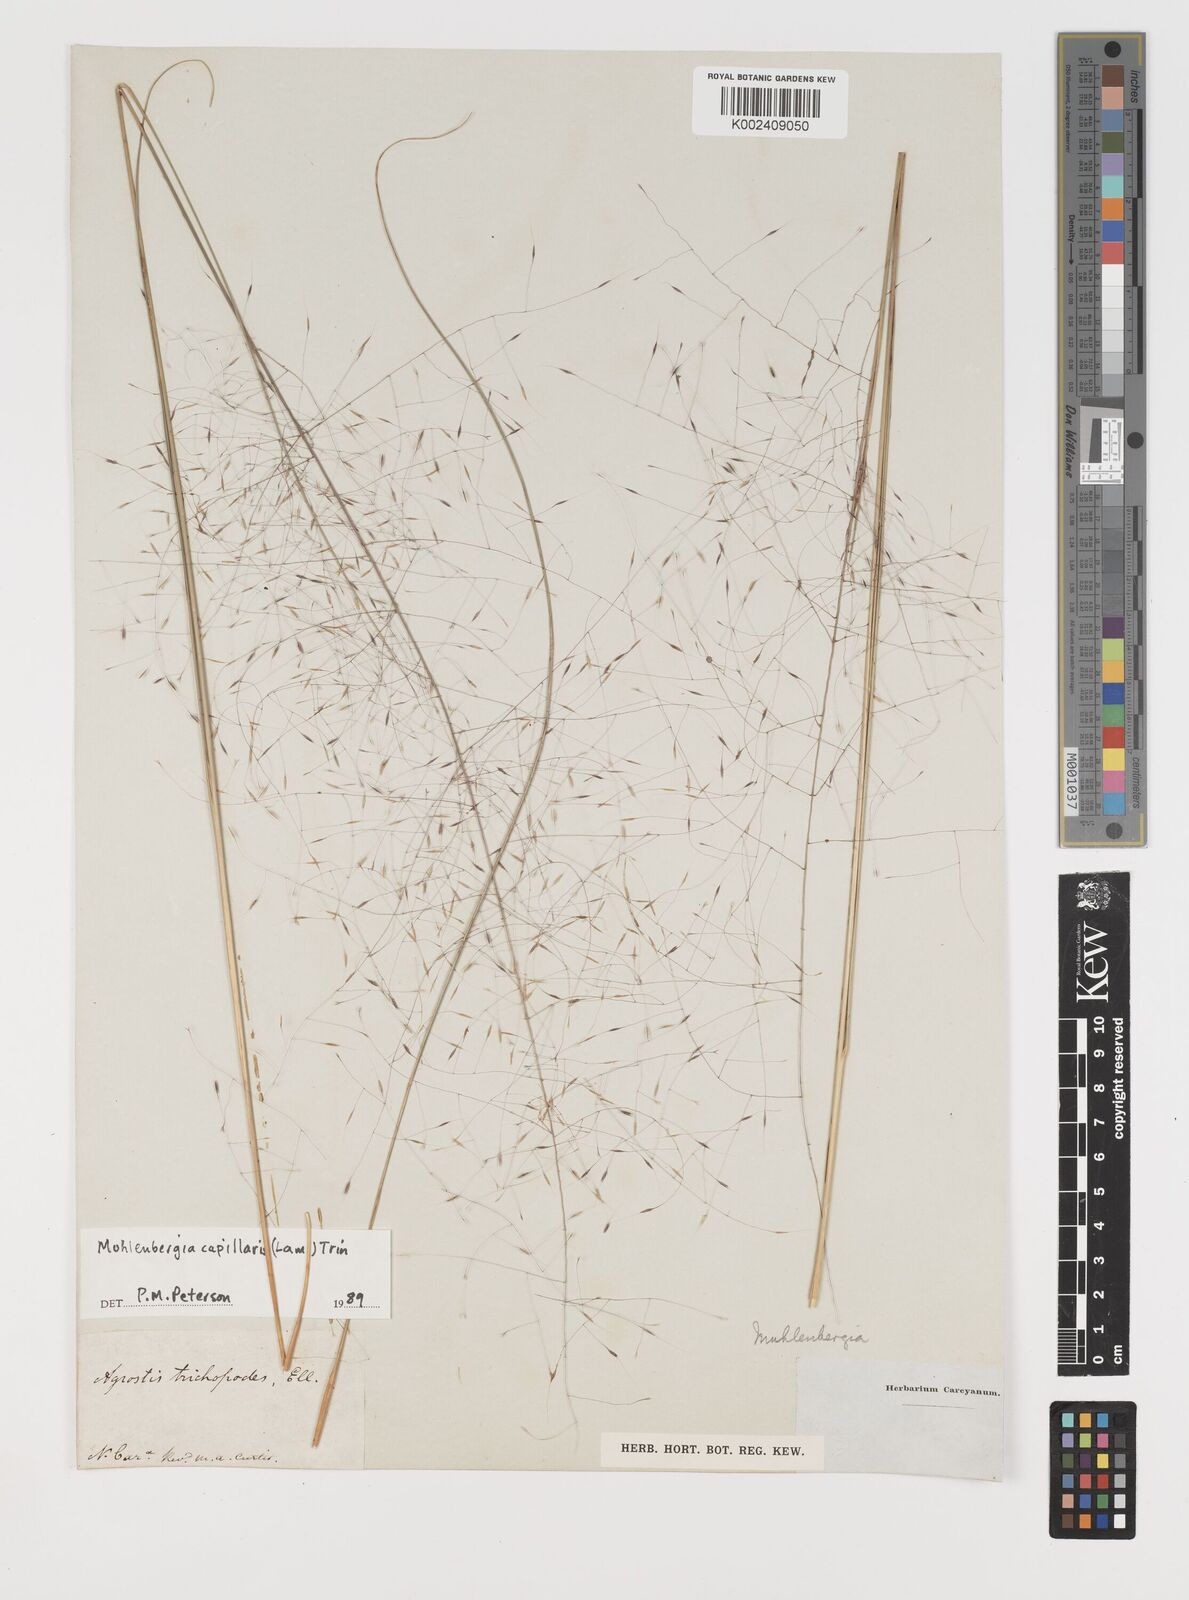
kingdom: Plantae
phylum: Tracheophyta
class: Liliopsida
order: Poales
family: Poaceae
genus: Muhlenbergia
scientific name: Muhlenbergia capillaris
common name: Purple grass
